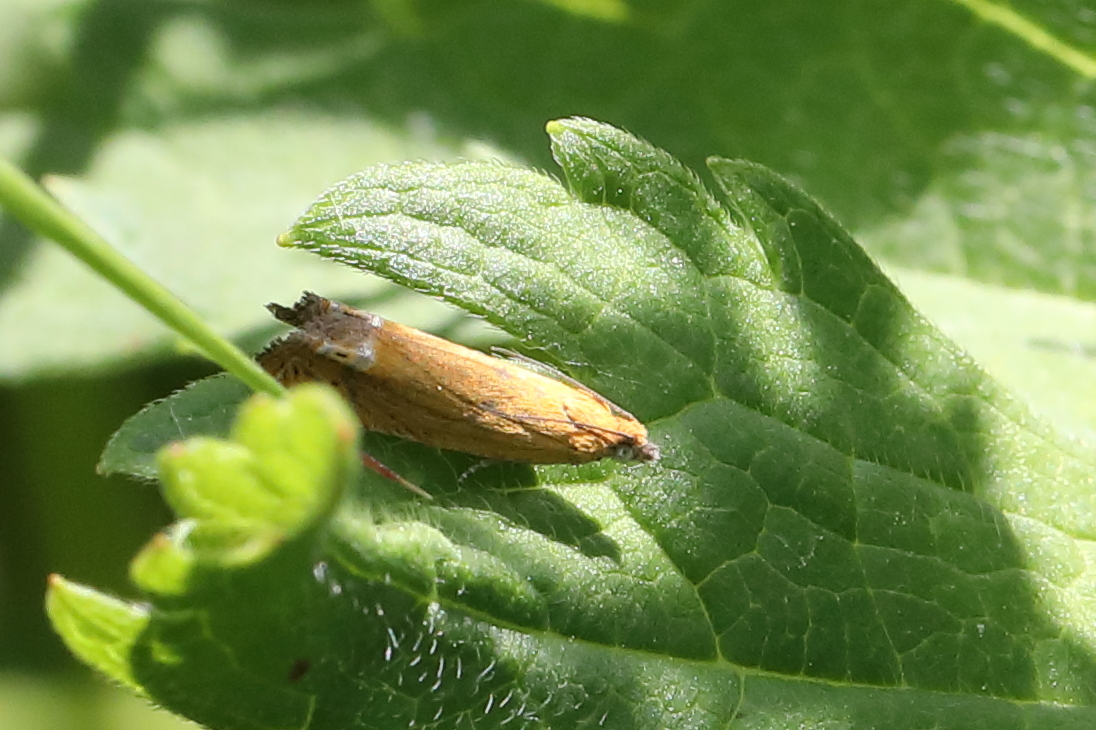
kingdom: Animalia
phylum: Arthropoda
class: Insecta
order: Lepidoptera
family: Tortricidae
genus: Lathronympha
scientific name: Lathronympha strigana
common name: Red piercer
